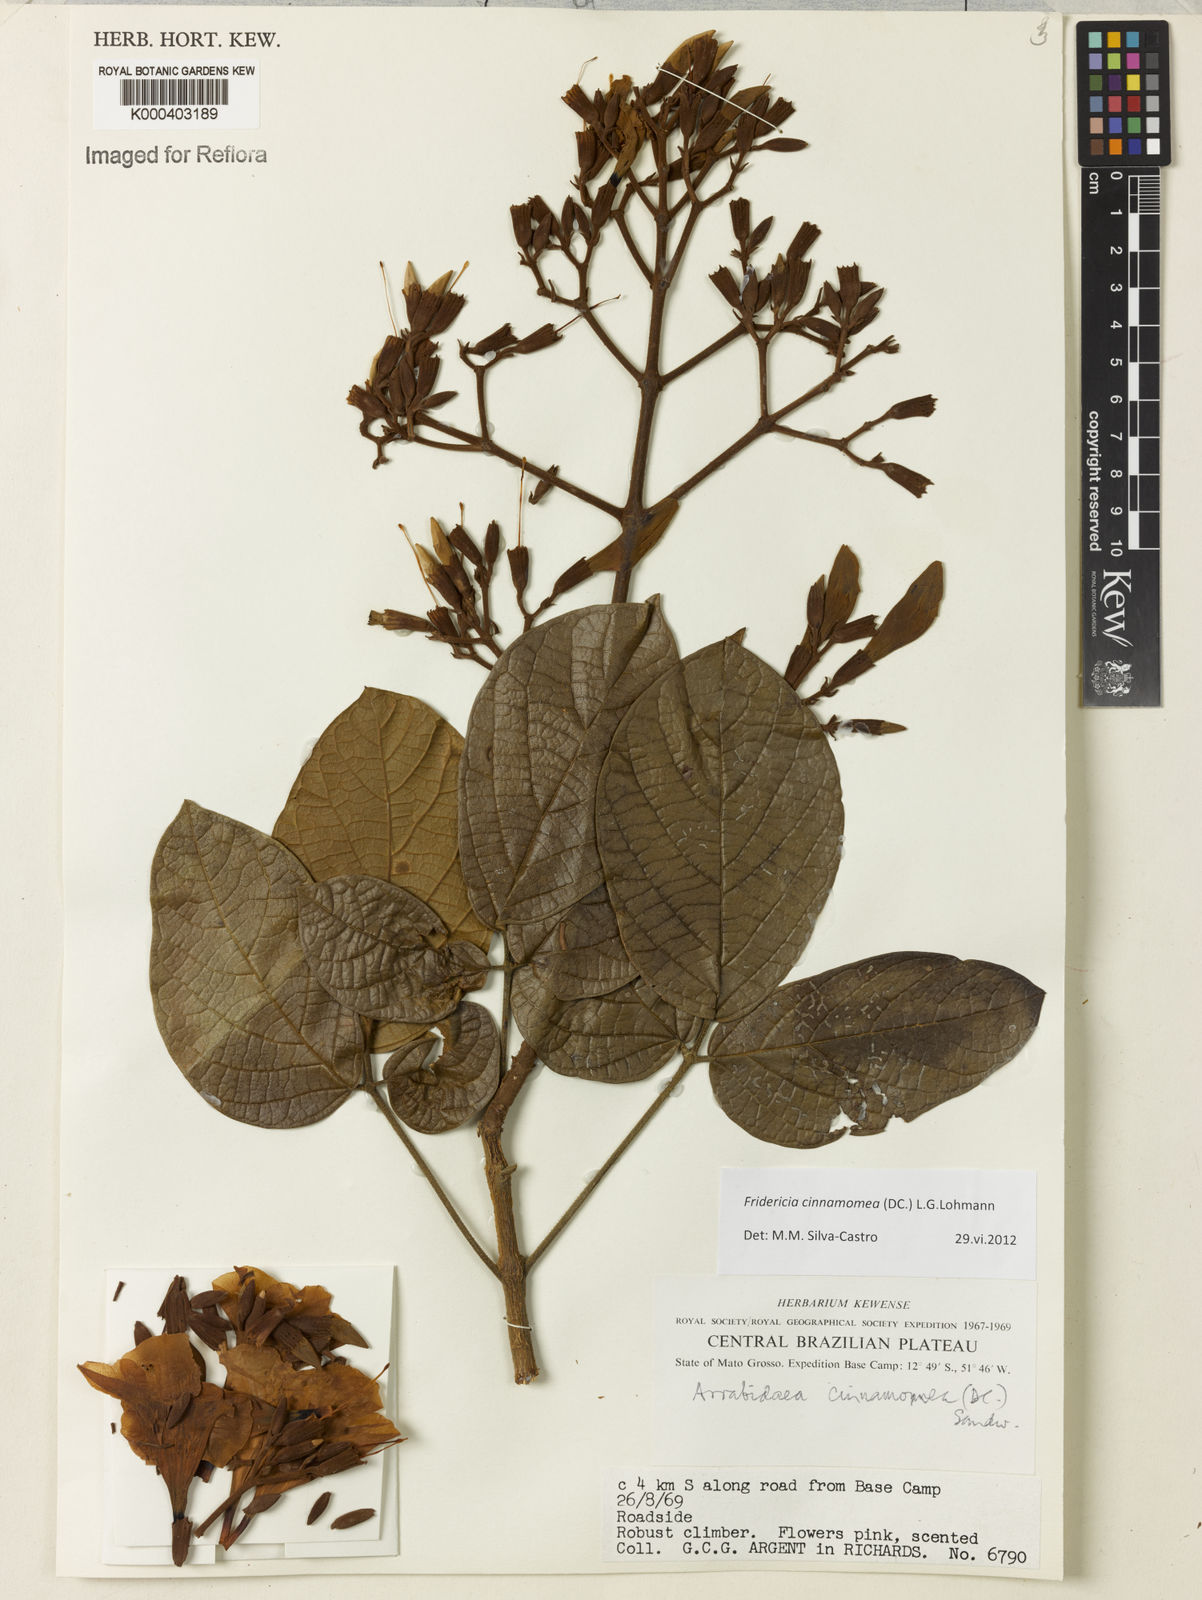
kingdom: Plantae
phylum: Tracheophyta
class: Magnoliopsida
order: Lamiales
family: Bignoniaceae
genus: Fridericia
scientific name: Fridericia cinnamomea
